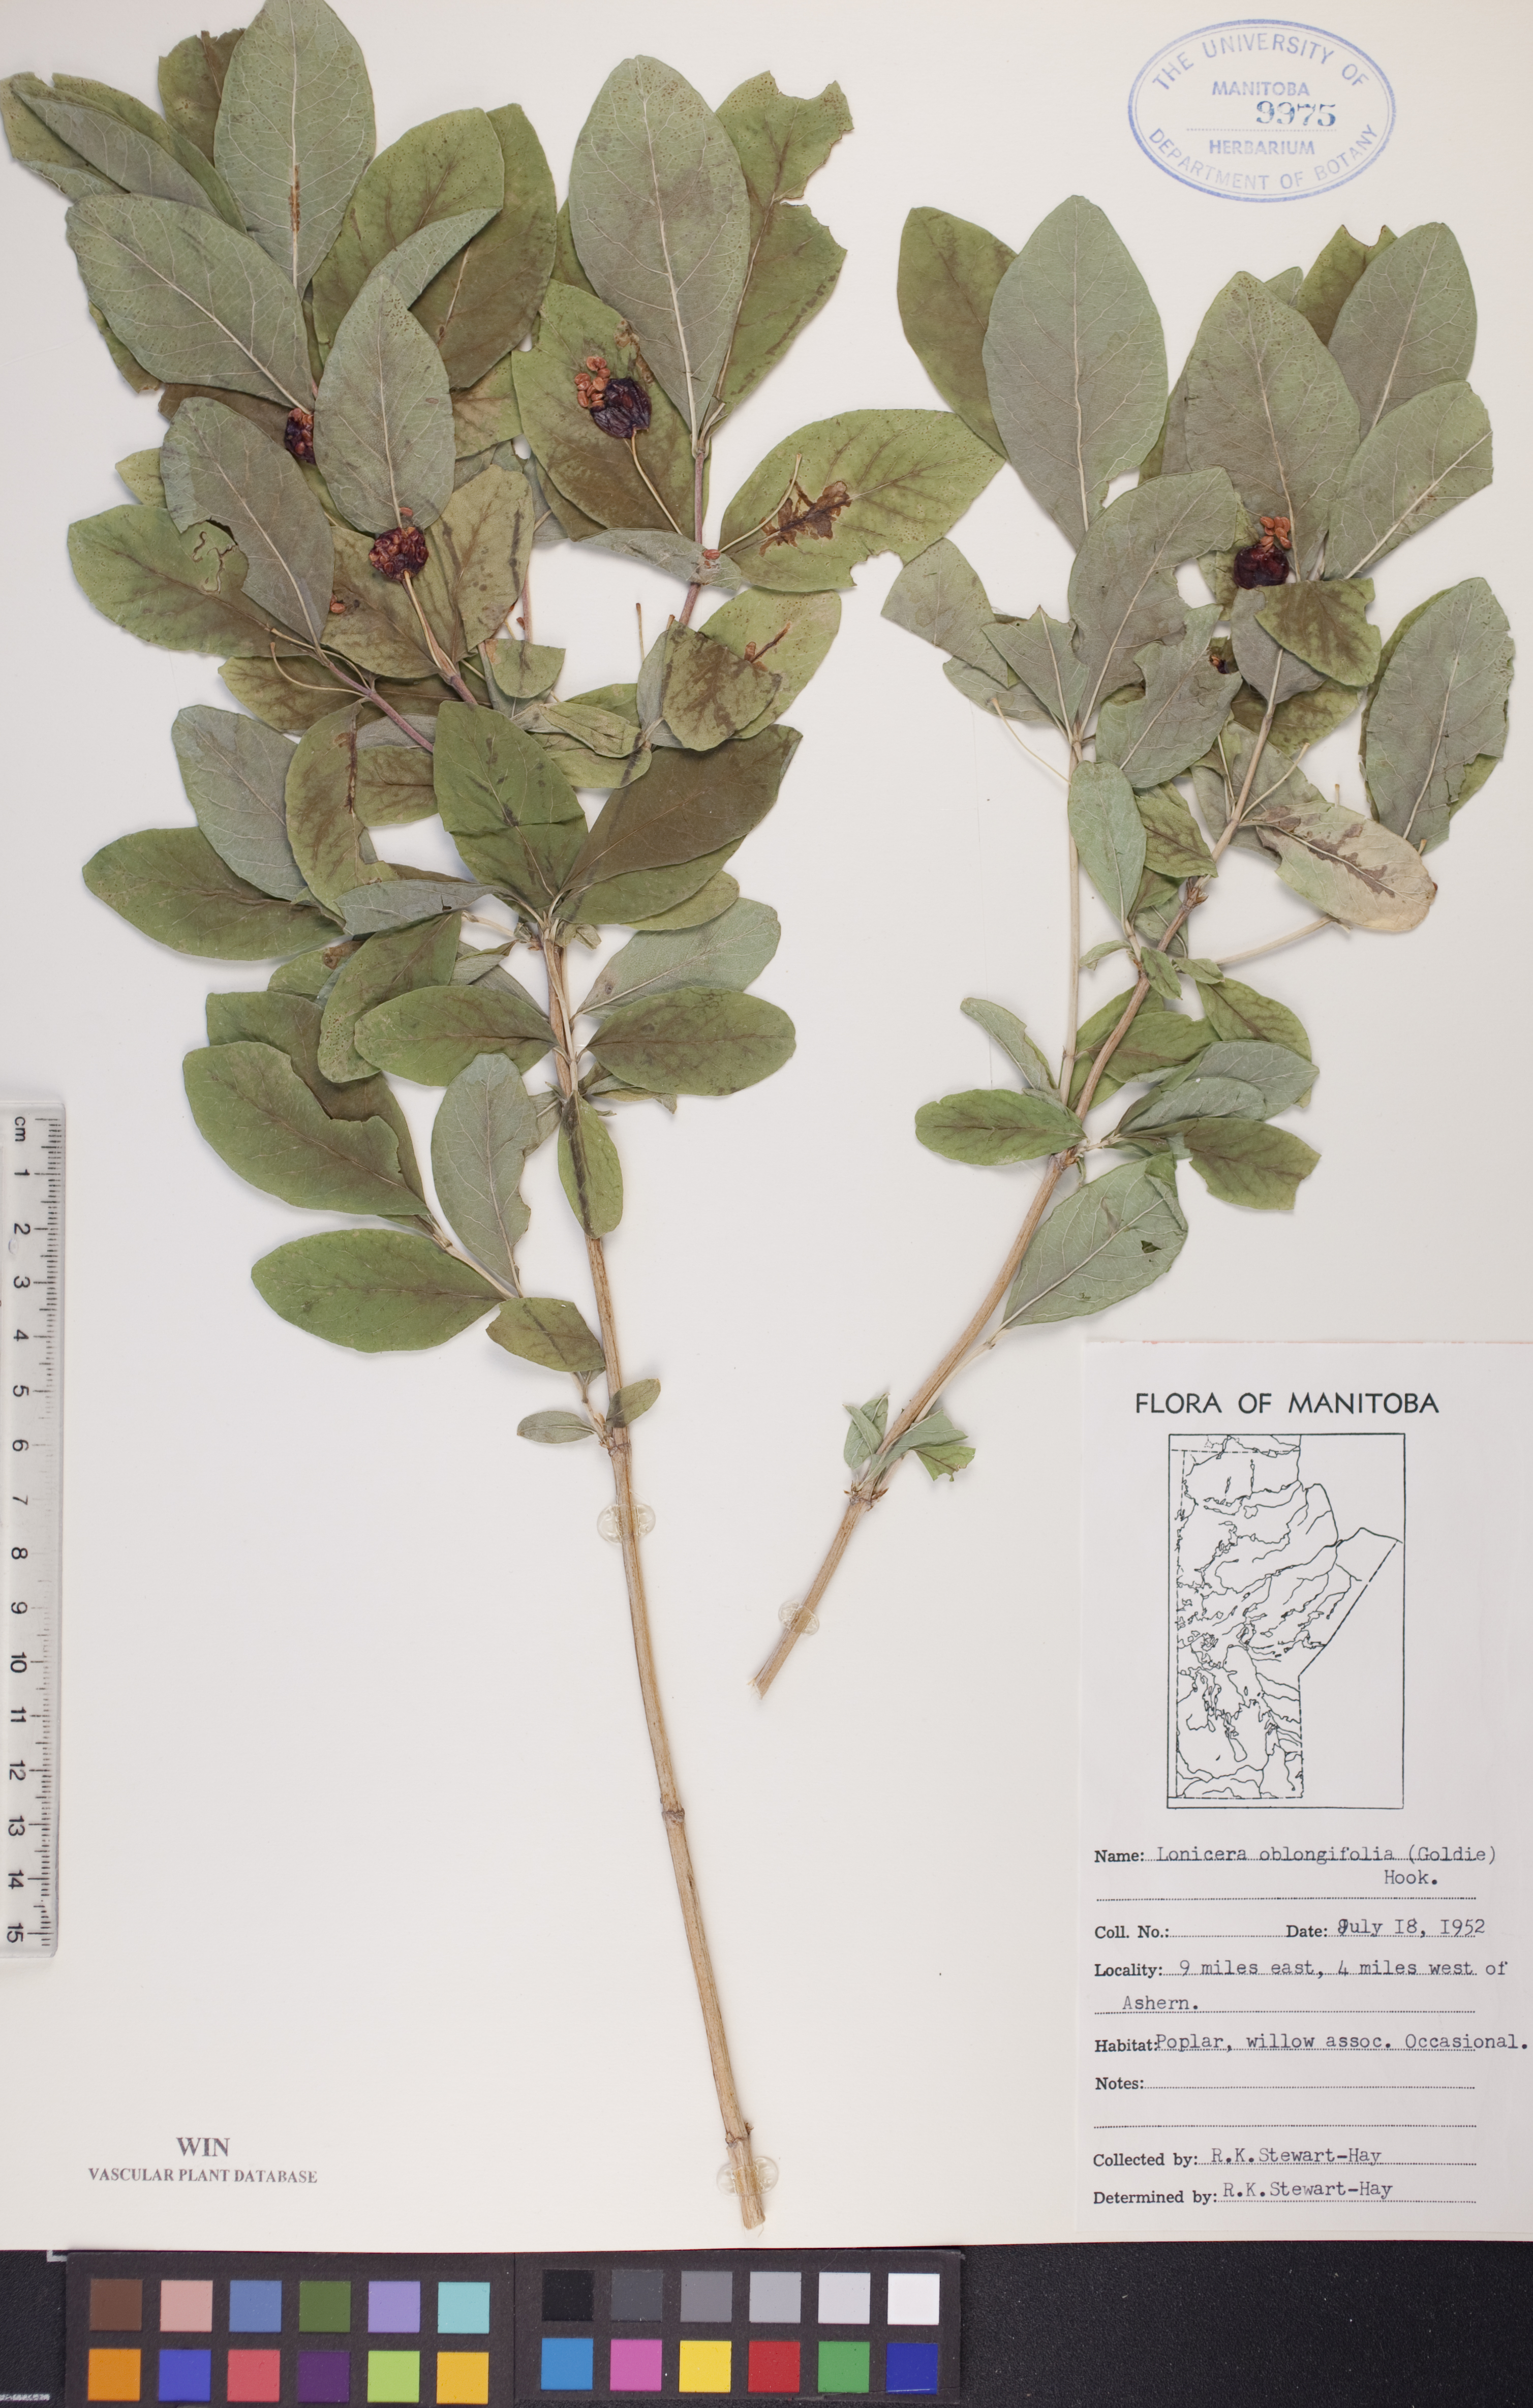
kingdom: Plantae
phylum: Tracheophyta
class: Magnoliopsida
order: Dipsacales
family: Caprifoliaceae
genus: Lonicera
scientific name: Lonicera oblongifolia
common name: Swamp fly honeysuckle
